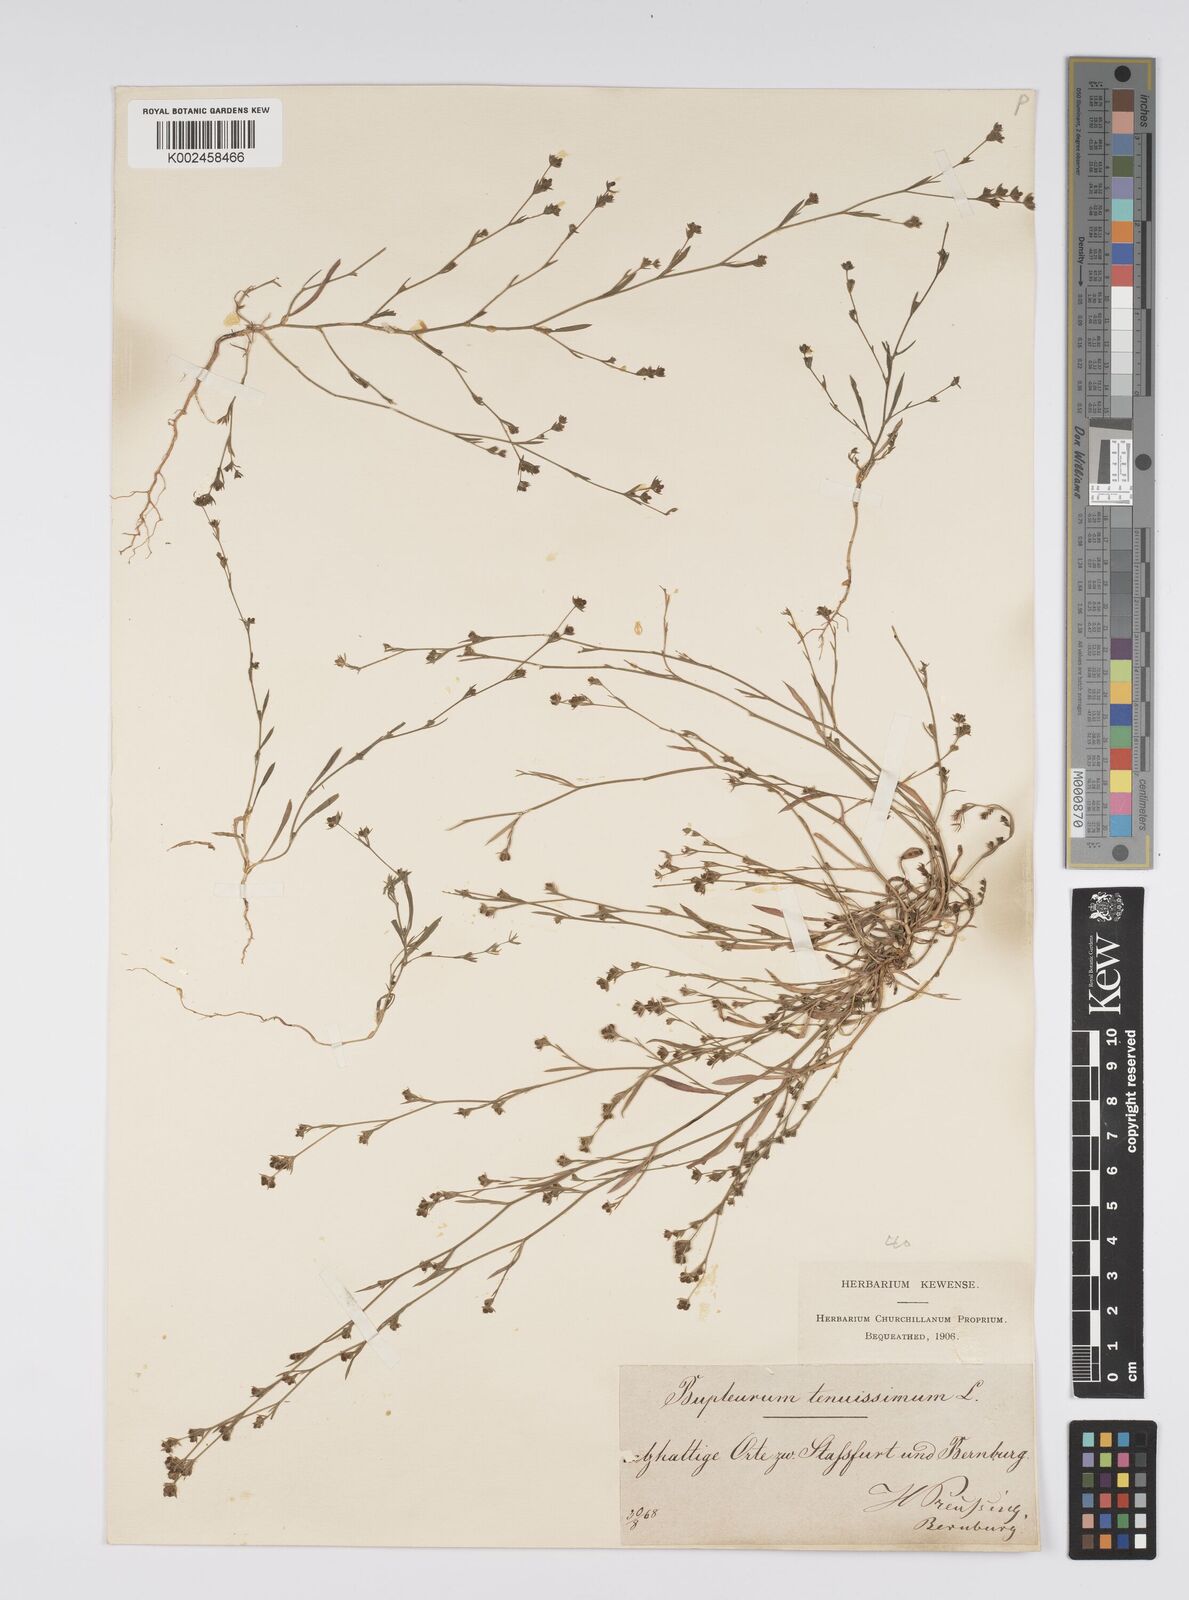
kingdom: Plantae
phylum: Tracheophyta
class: Magnoliopsida
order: Apiales
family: Apiaceae
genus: Bupleurum
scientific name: Bupleurum tenuissimum
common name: Slender hare's-ear
